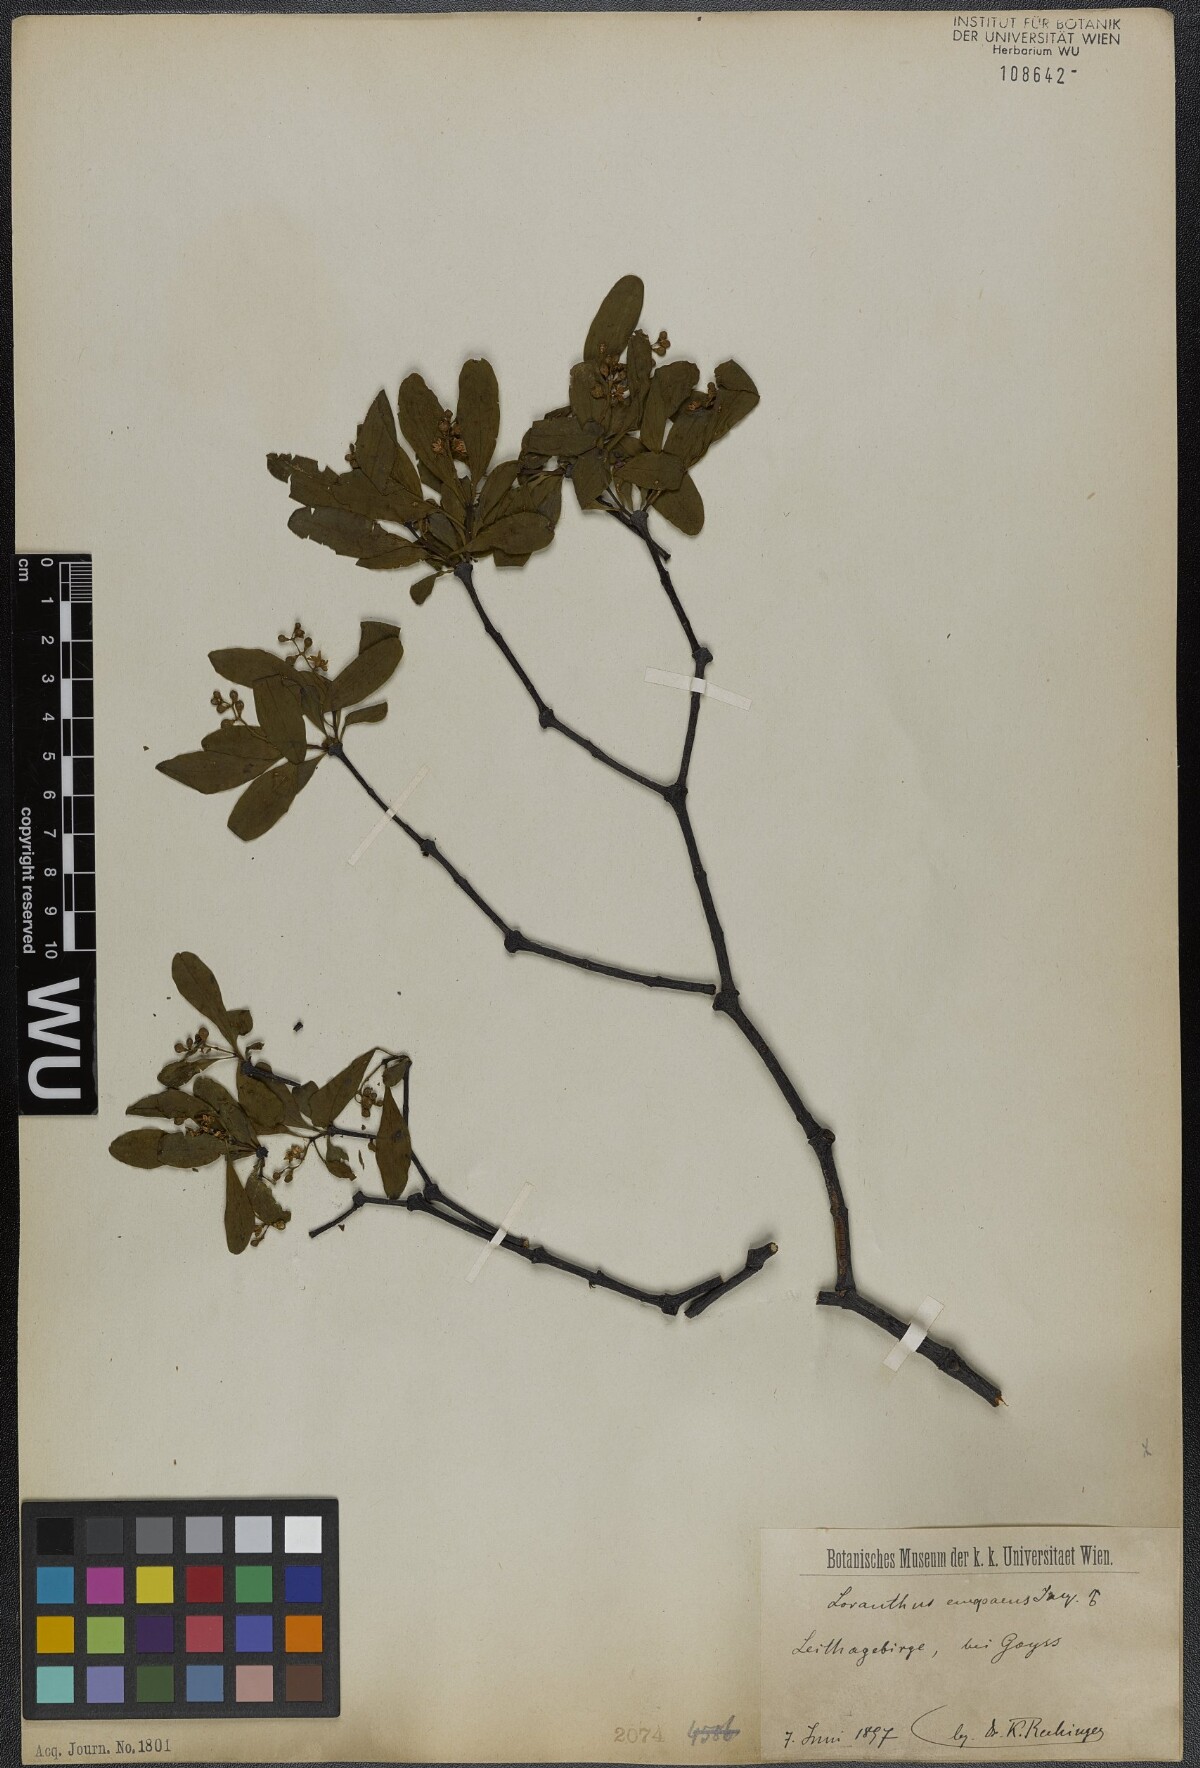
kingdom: Plantae
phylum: Tracheophyta
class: Magnoliopsida
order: Santalales
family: Loranthaceae
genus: Loranthus
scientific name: Loranthus europaeus
